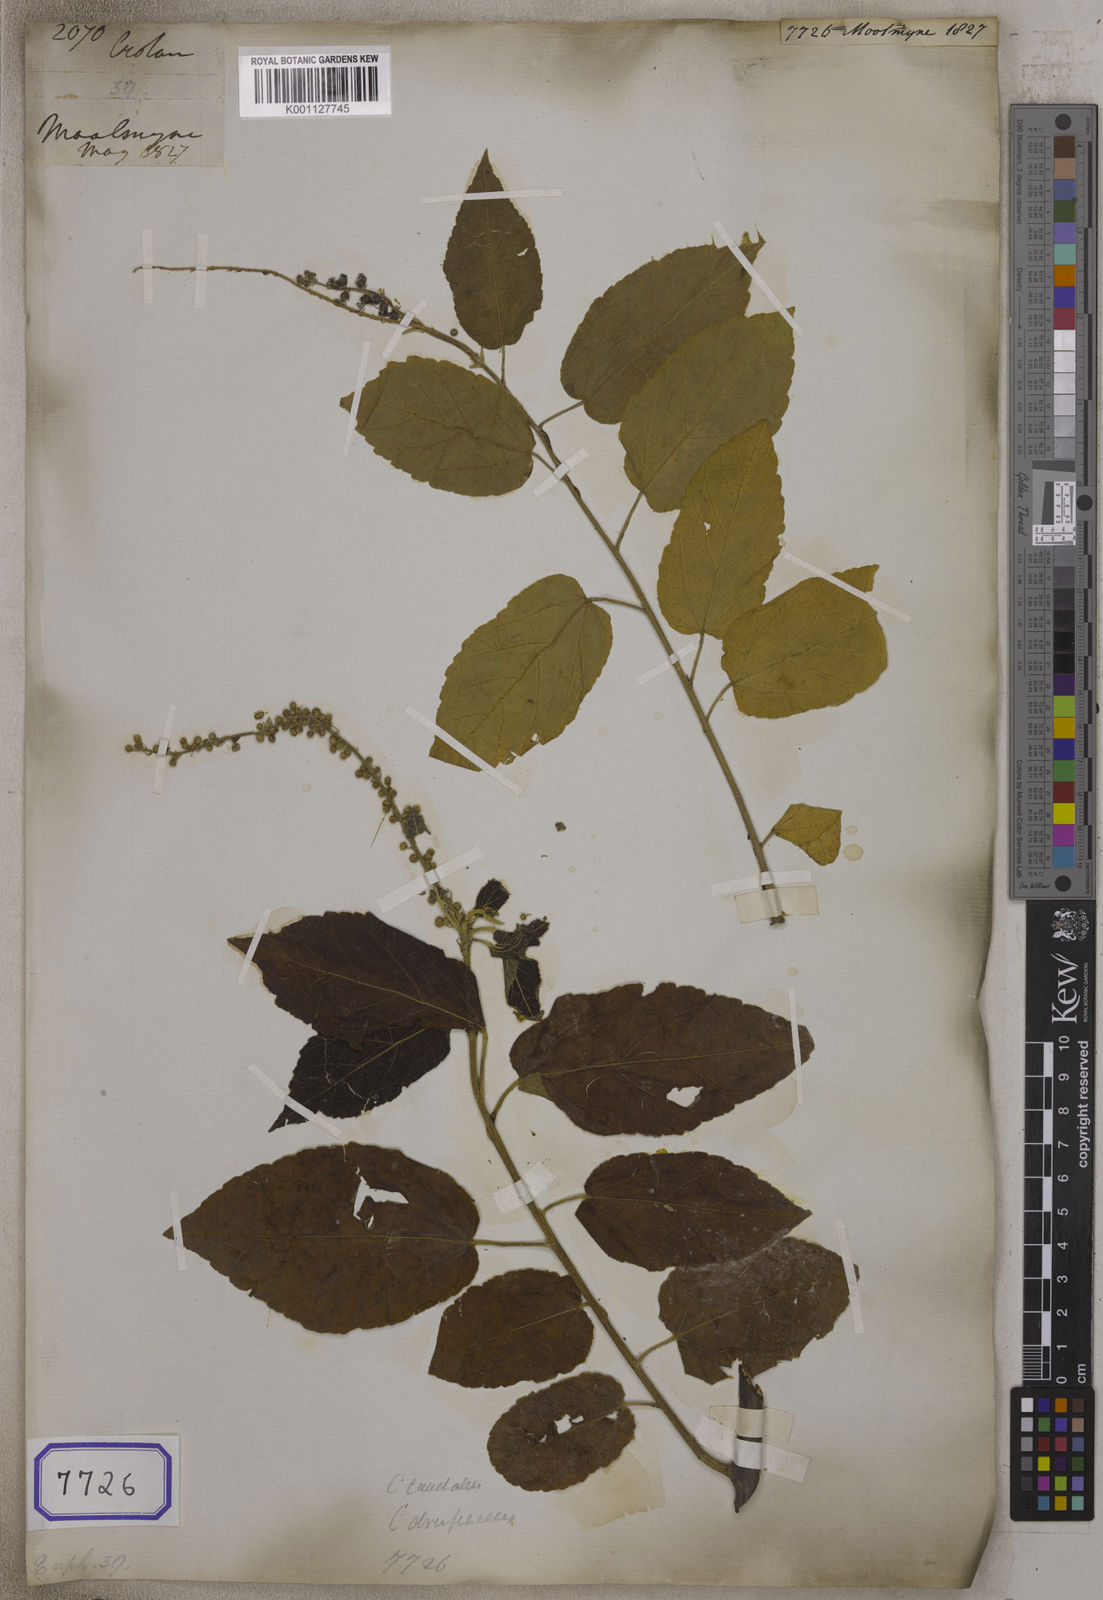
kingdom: Plantae
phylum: Tracheophyta
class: Magnoliopsida
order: Malpighiales
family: Euphorbiaceae
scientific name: Euphorbiaceae
